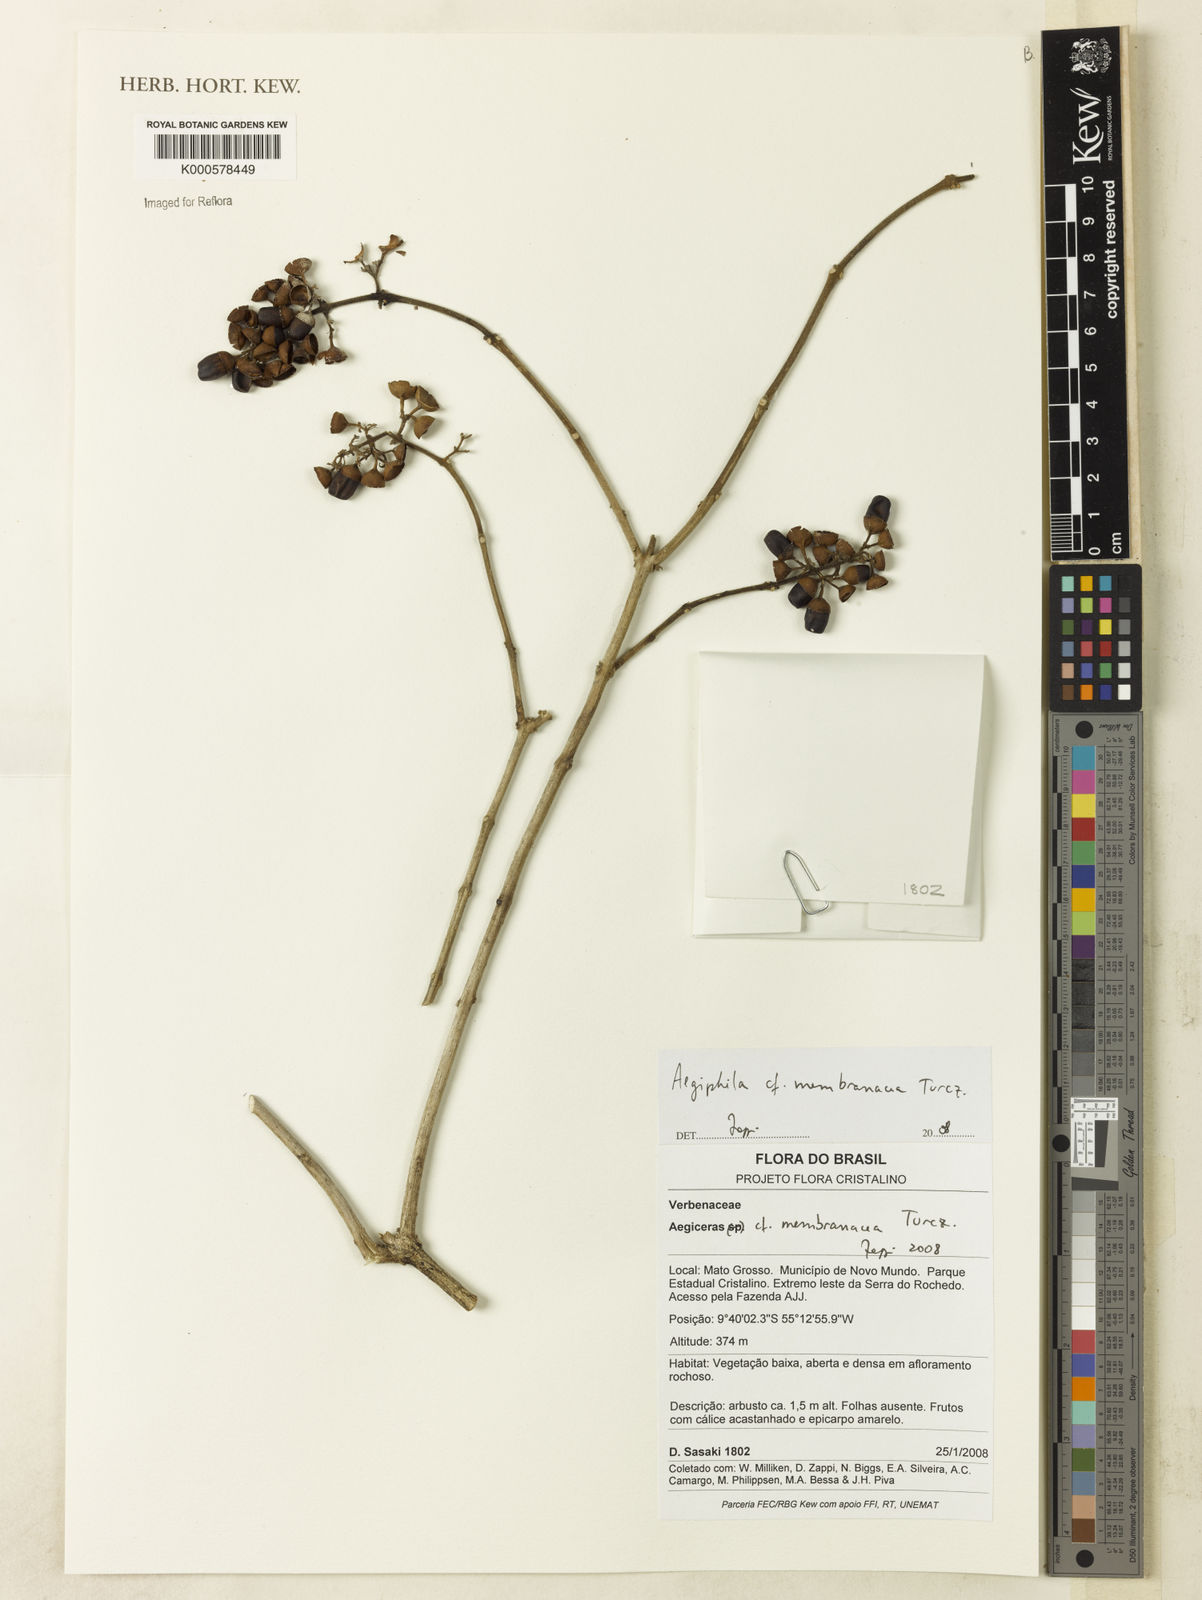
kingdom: Plantae
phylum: Tracheophyta
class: Magnoliopsida
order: Lamiales
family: Lamiaceae
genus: Aegiphila
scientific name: Aegiphila membranacea
